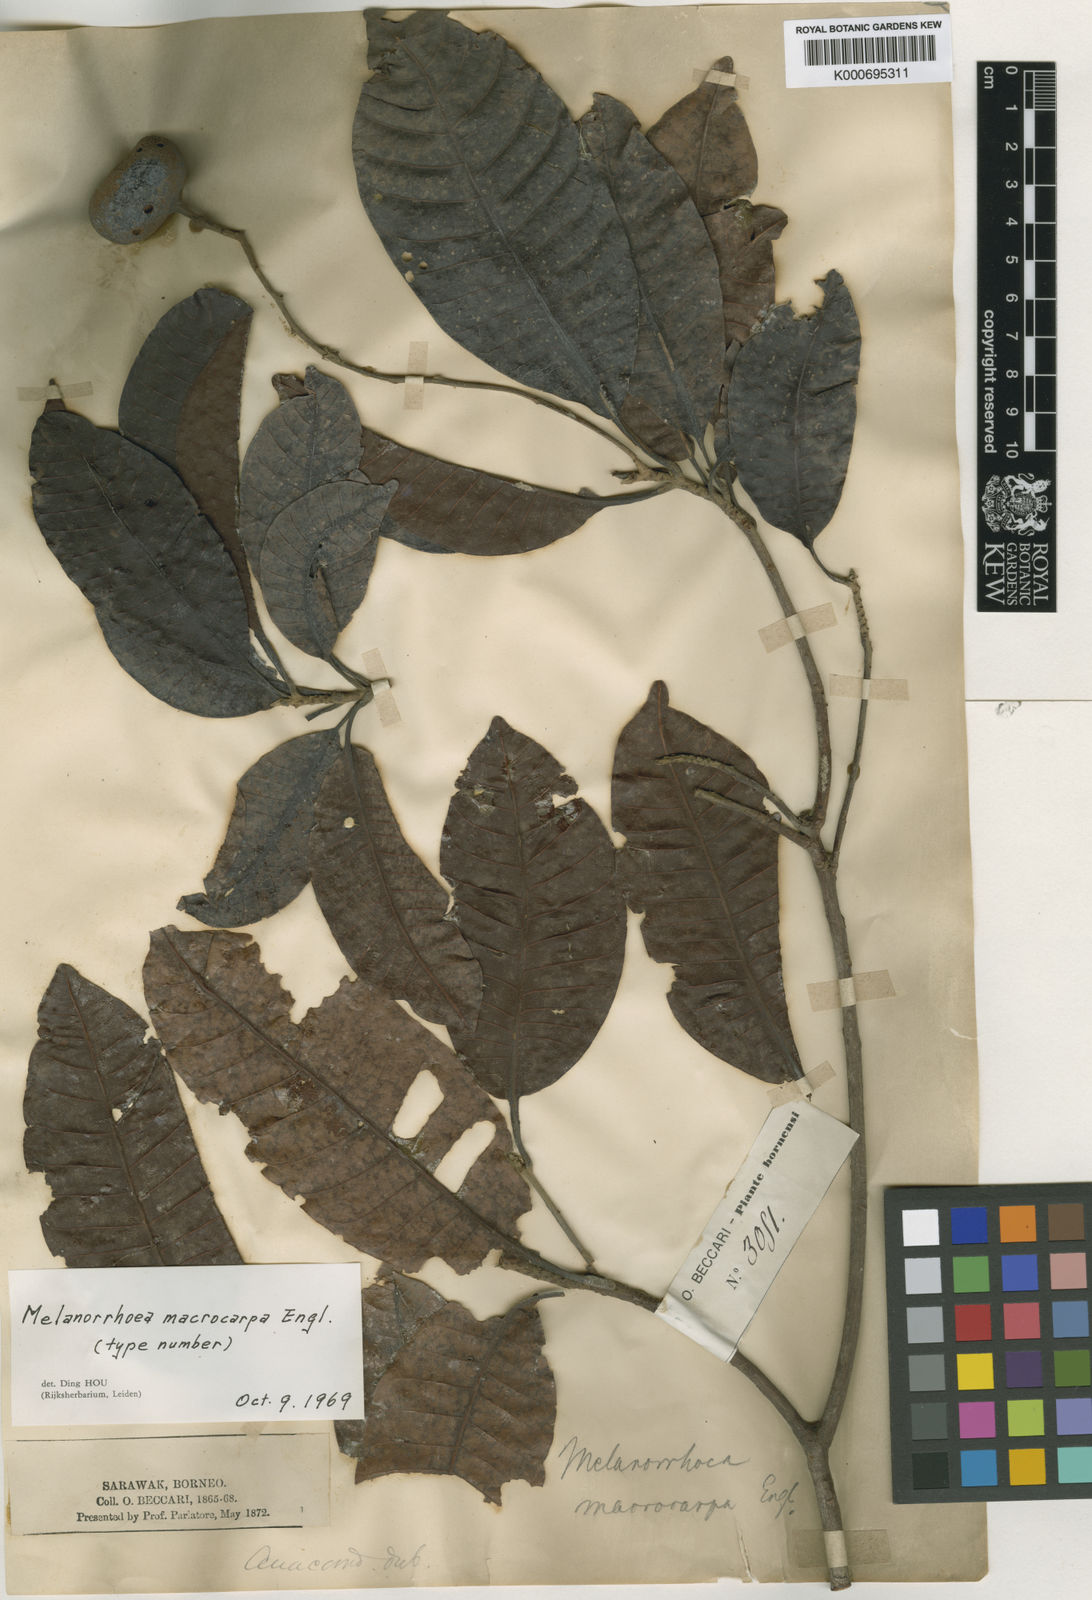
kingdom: Plantae
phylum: Tracheophyta
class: Magnoliopsida
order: Sapindales
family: Anacardiaceae
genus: Gluta
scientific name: Gluta macrocarpa
